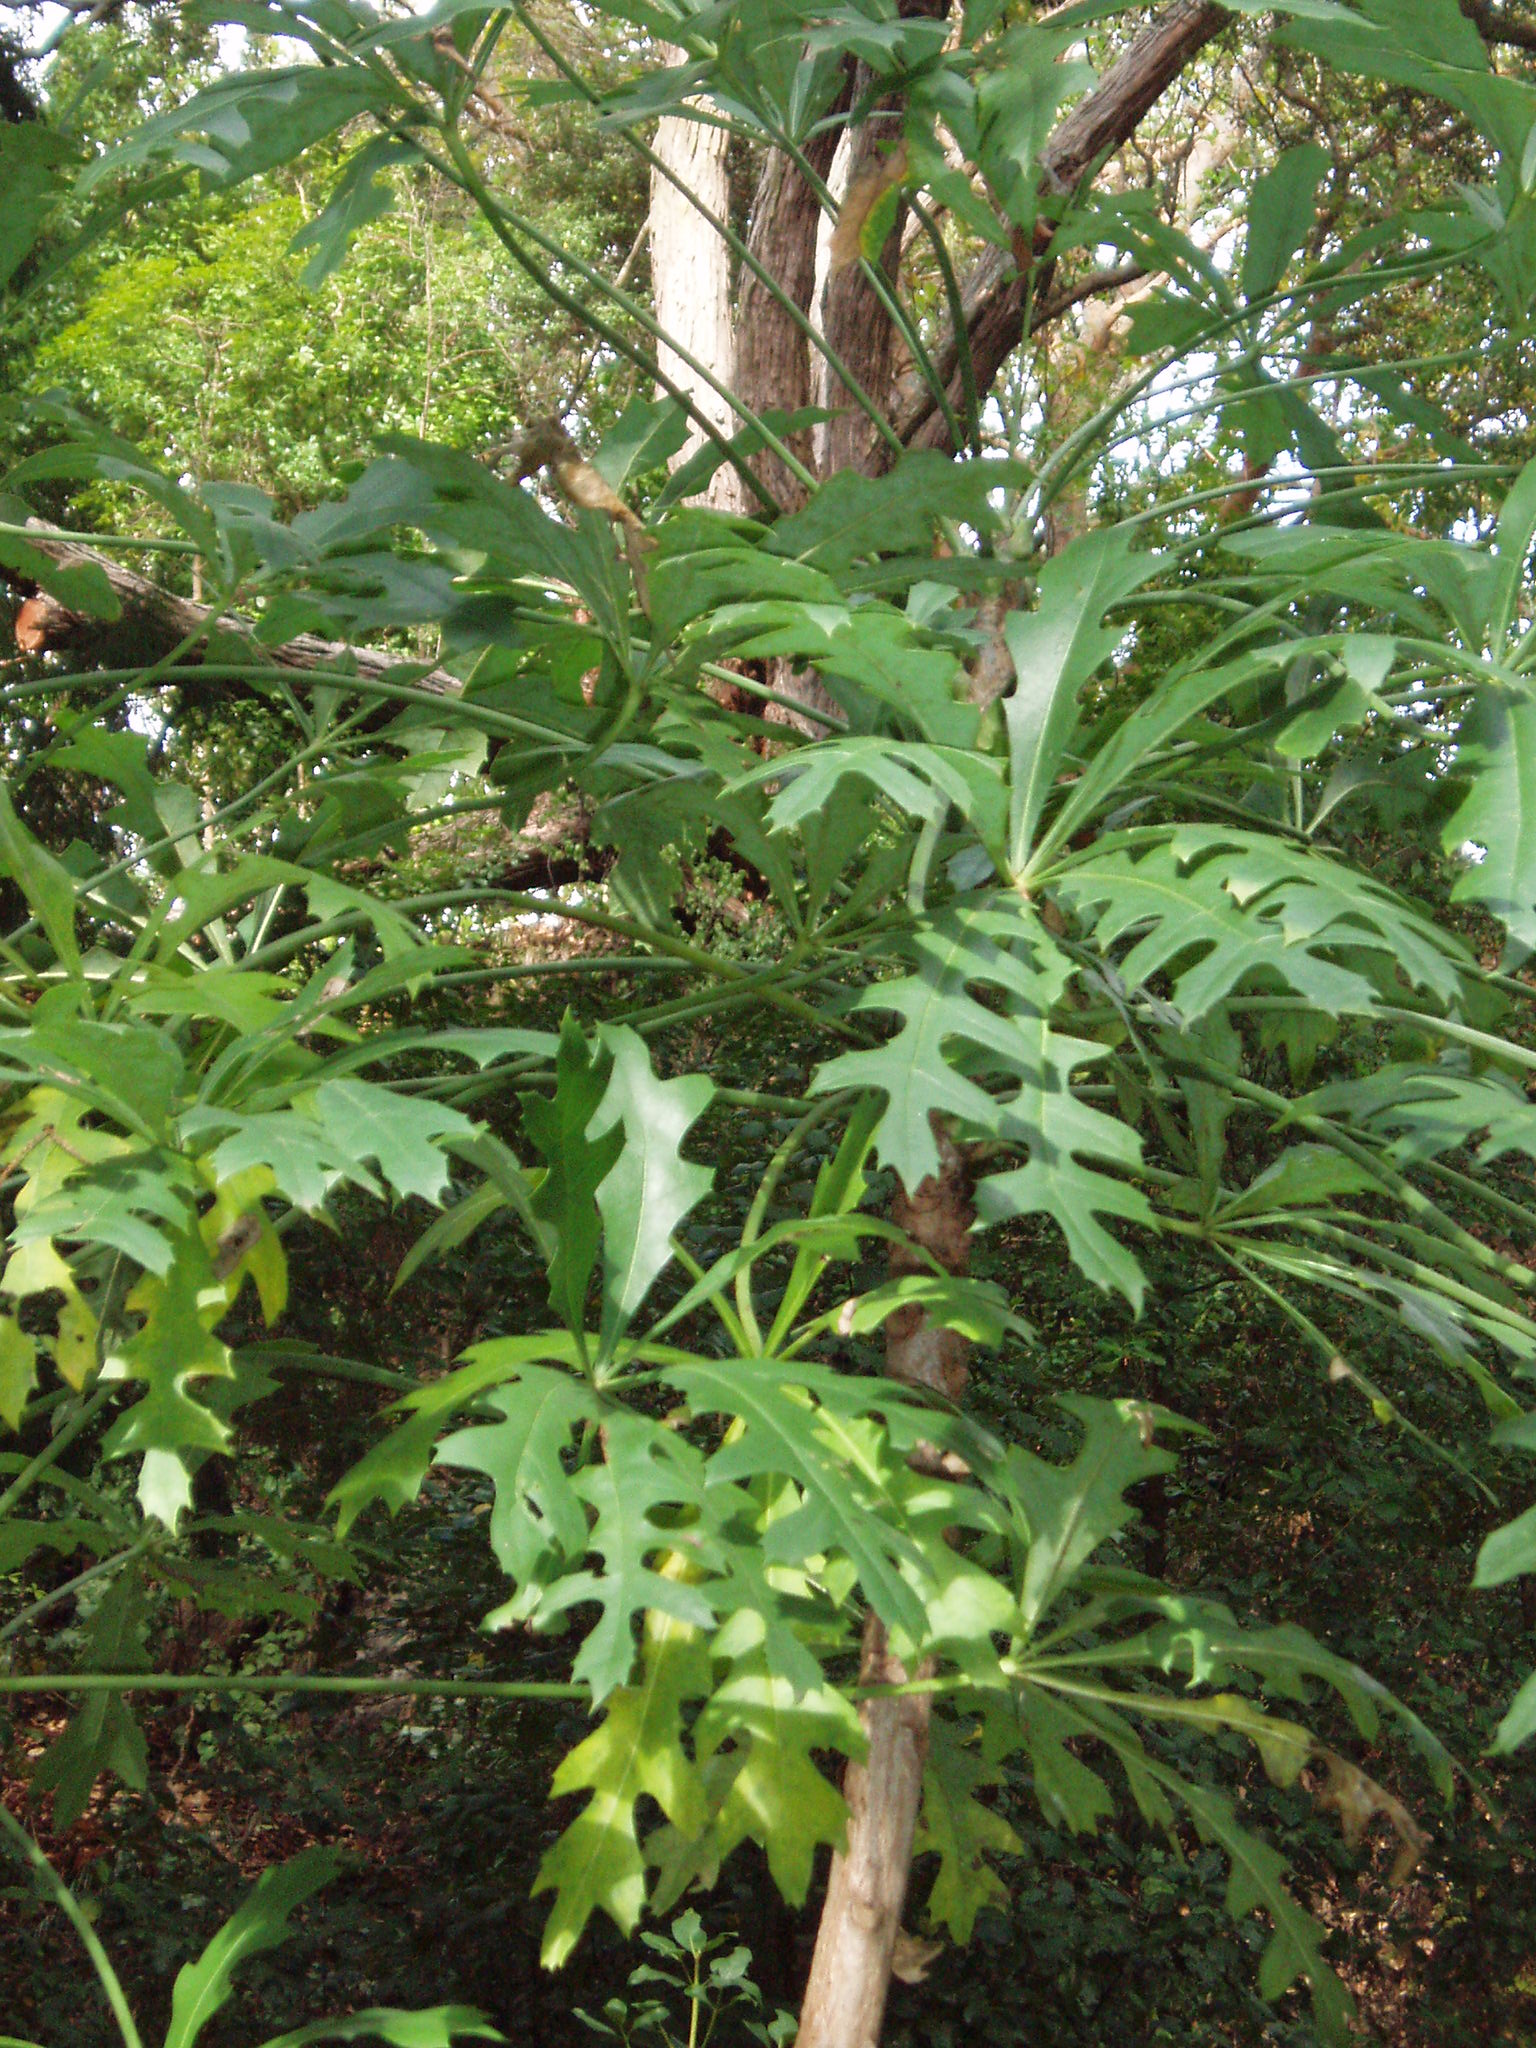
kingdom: Plantae
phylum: Tracheophyta
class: Magnoliopsida
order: Apiales
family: Araliaceae
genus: Cussonia
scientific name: Cussonia paniculata
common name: Cabbagetree
